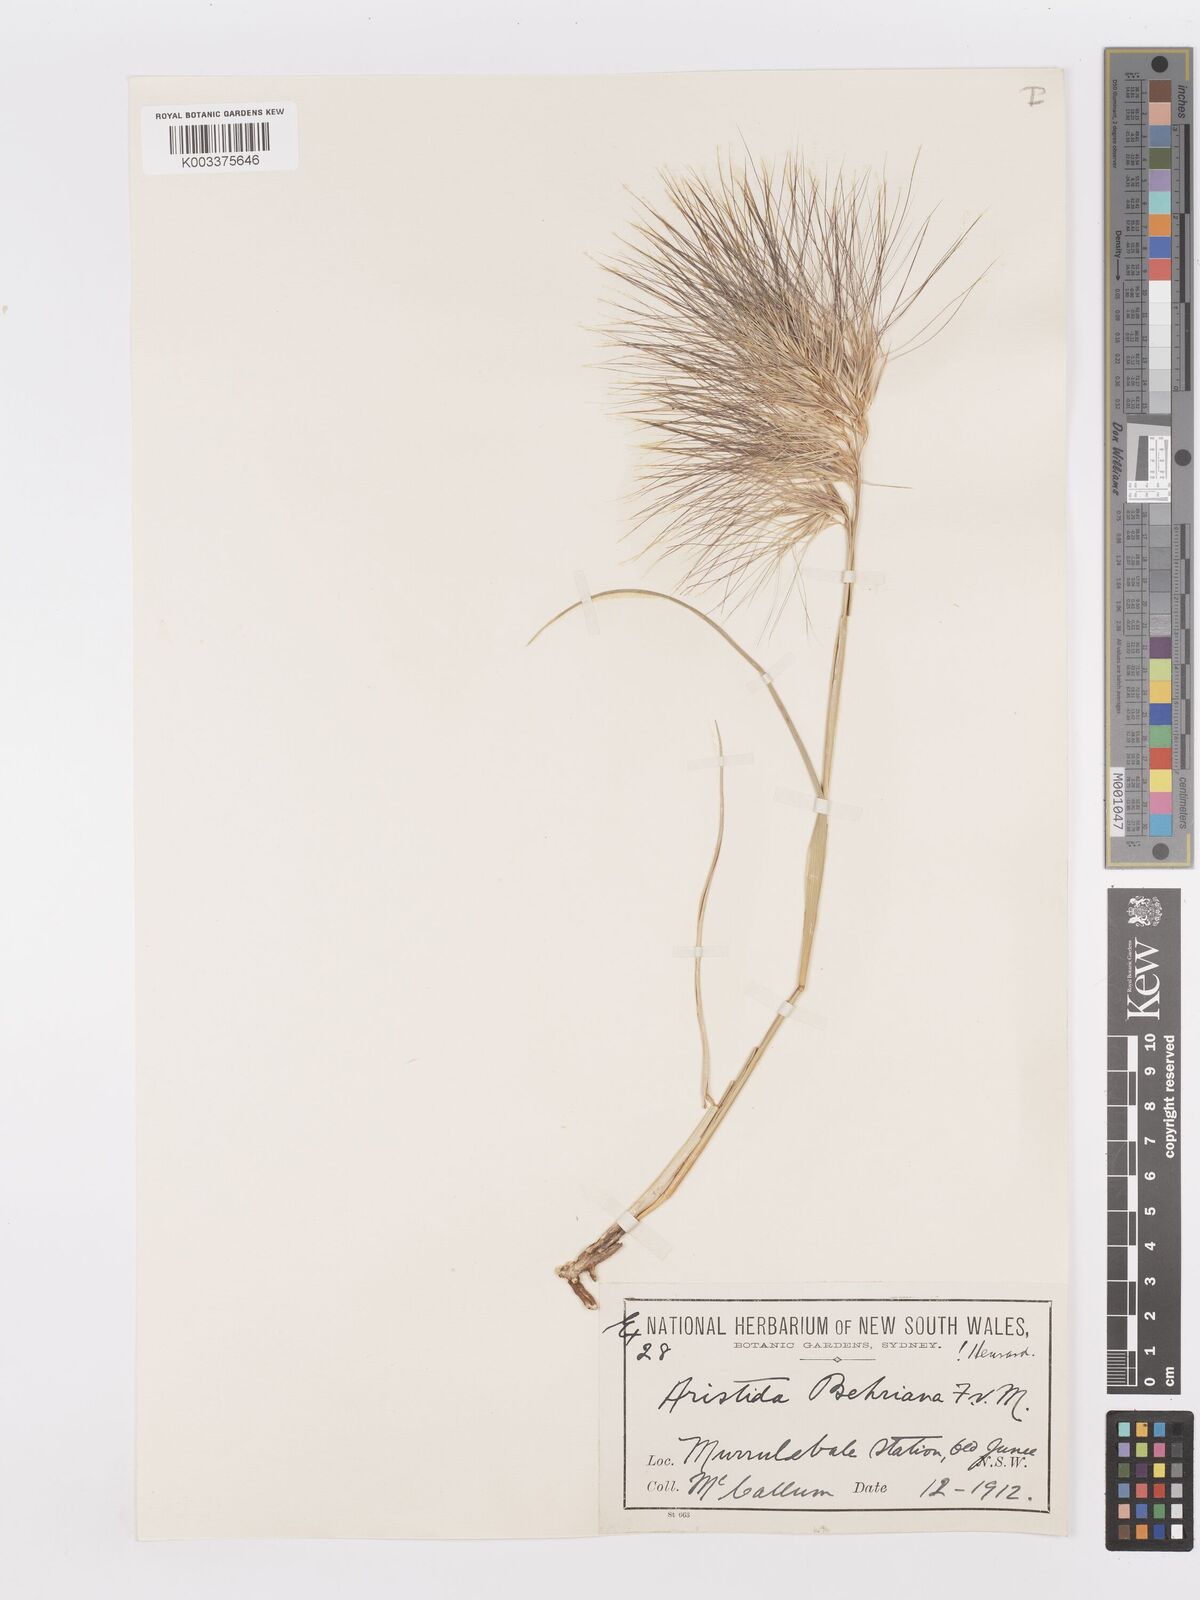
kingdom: Plantae
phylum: Tracheophyta
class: Liliopsida
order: Poales
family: Poaceae
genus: Aristida
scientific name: Aristida behriana
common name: Long-awn wire grass
